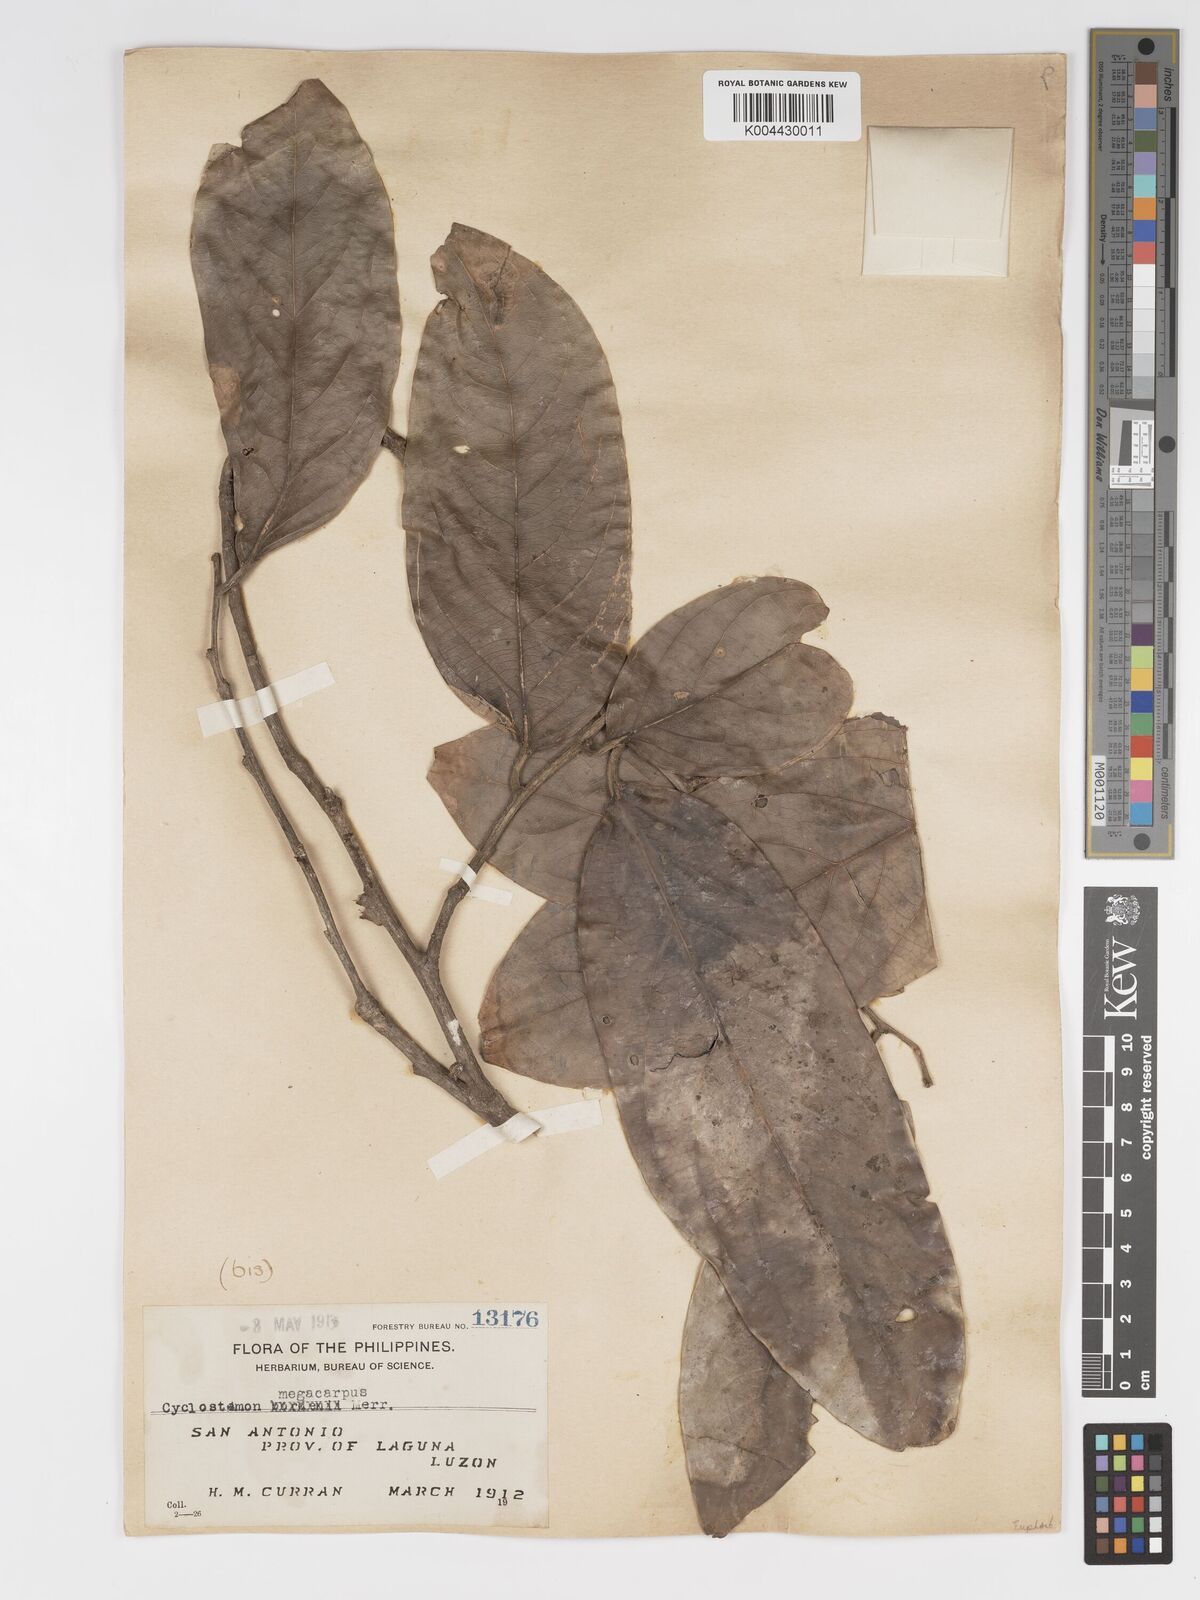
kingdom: Plantae
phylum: Tracheophyta
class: Magnoliopsida
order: Malpighiales
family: Putranjivaceae
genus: Drypetes
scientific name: Drypetes grandifolia
